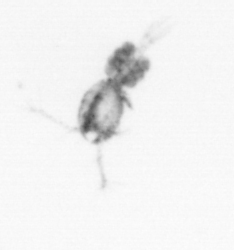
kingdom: Animalia
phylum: Arthropoda
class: Copepoda
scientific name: Copepoda
